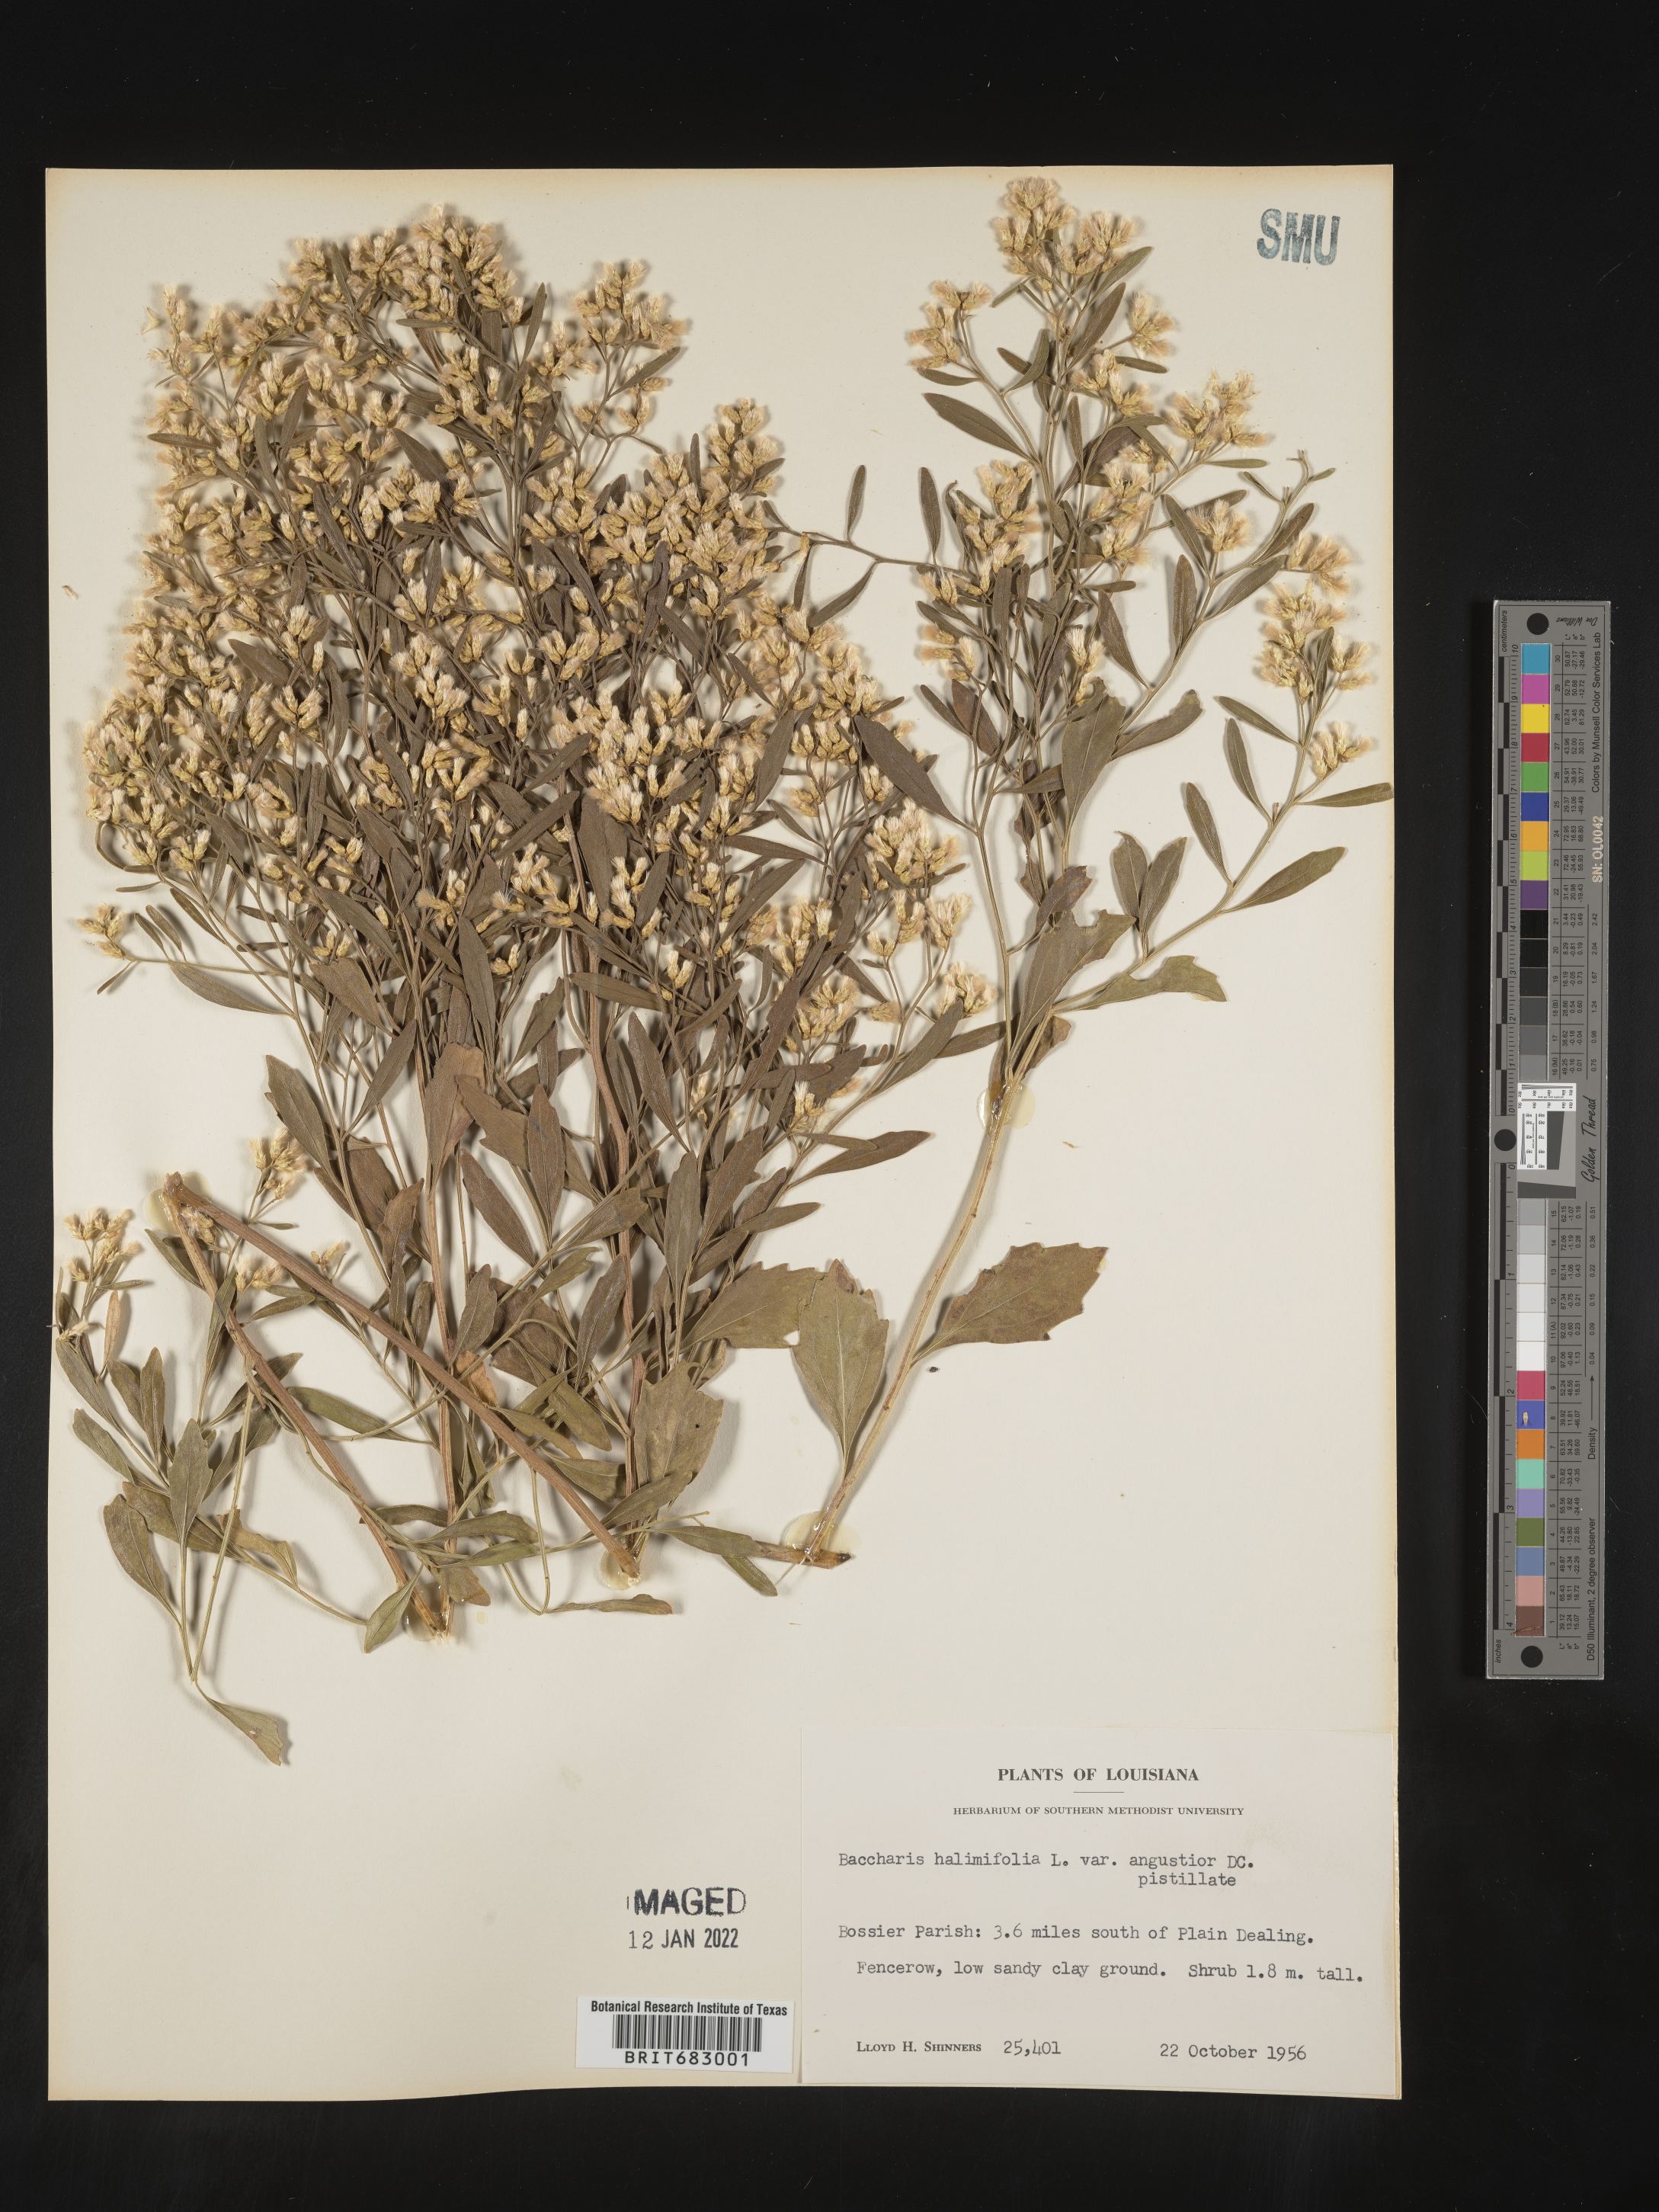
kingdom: Plantae
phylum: Tracheophyta
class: Magnoliopsida
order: Asterales
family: Asteraceae
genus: Nidorella
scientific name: Nidorella ivifolia
